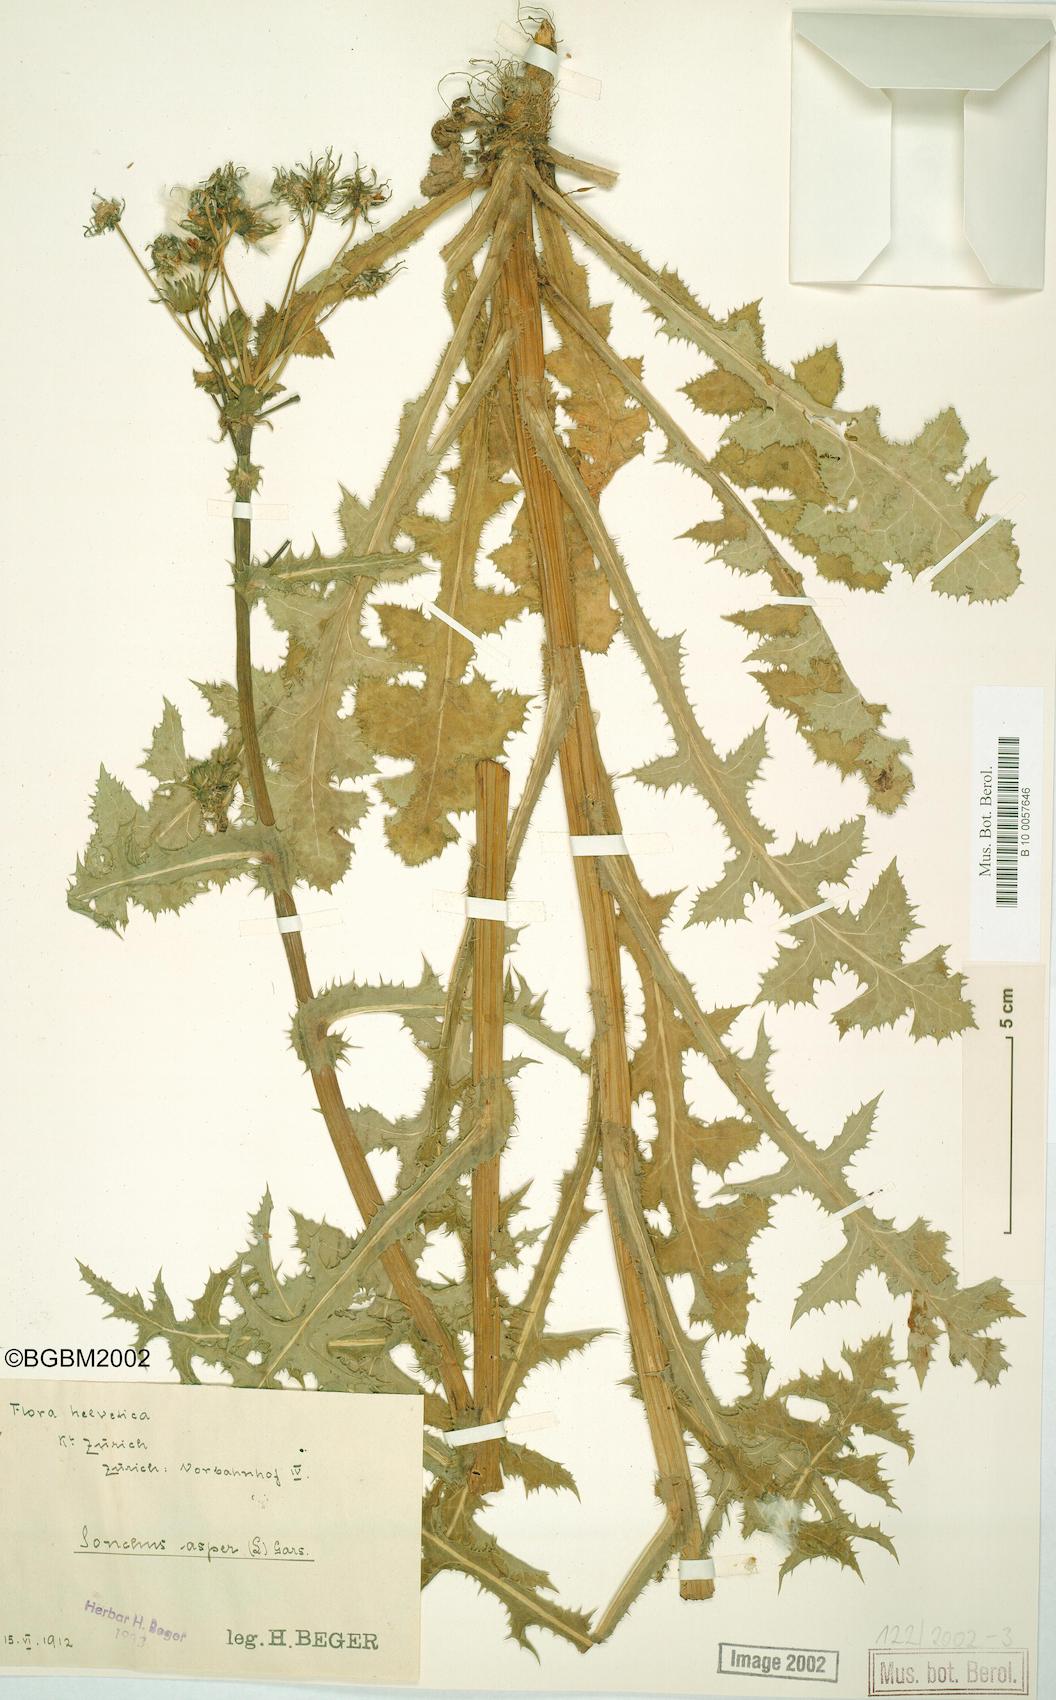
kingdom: Plantae
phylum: Tracheophyta
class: Magnoliopsida
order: Asterales
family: Asteraceae
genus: Sonchus
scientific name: Sonchus asper
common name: Prickly sow-thistle
